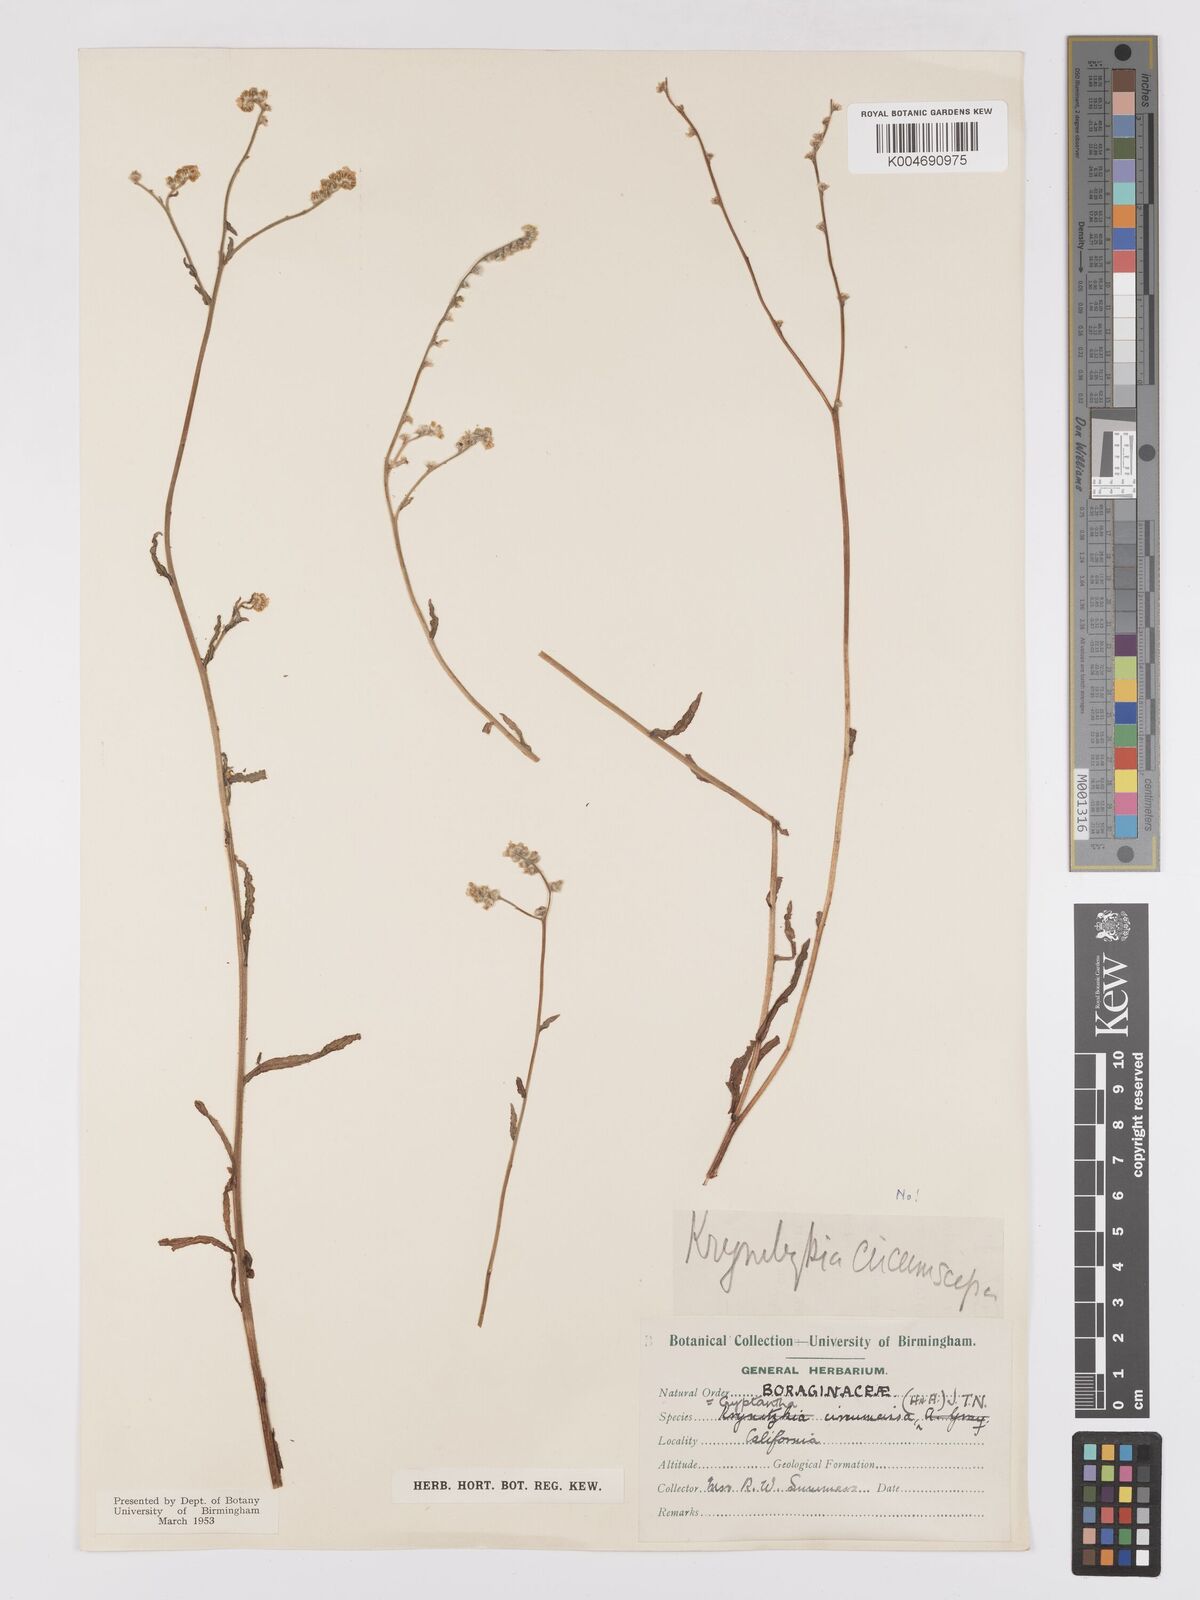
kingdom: Plantae
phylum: Tracheophyta
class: Magnoliopsida
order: Boraginales
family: Boraginaceae
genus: Greeneocharis
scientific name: Greeneocharis circumscissa
